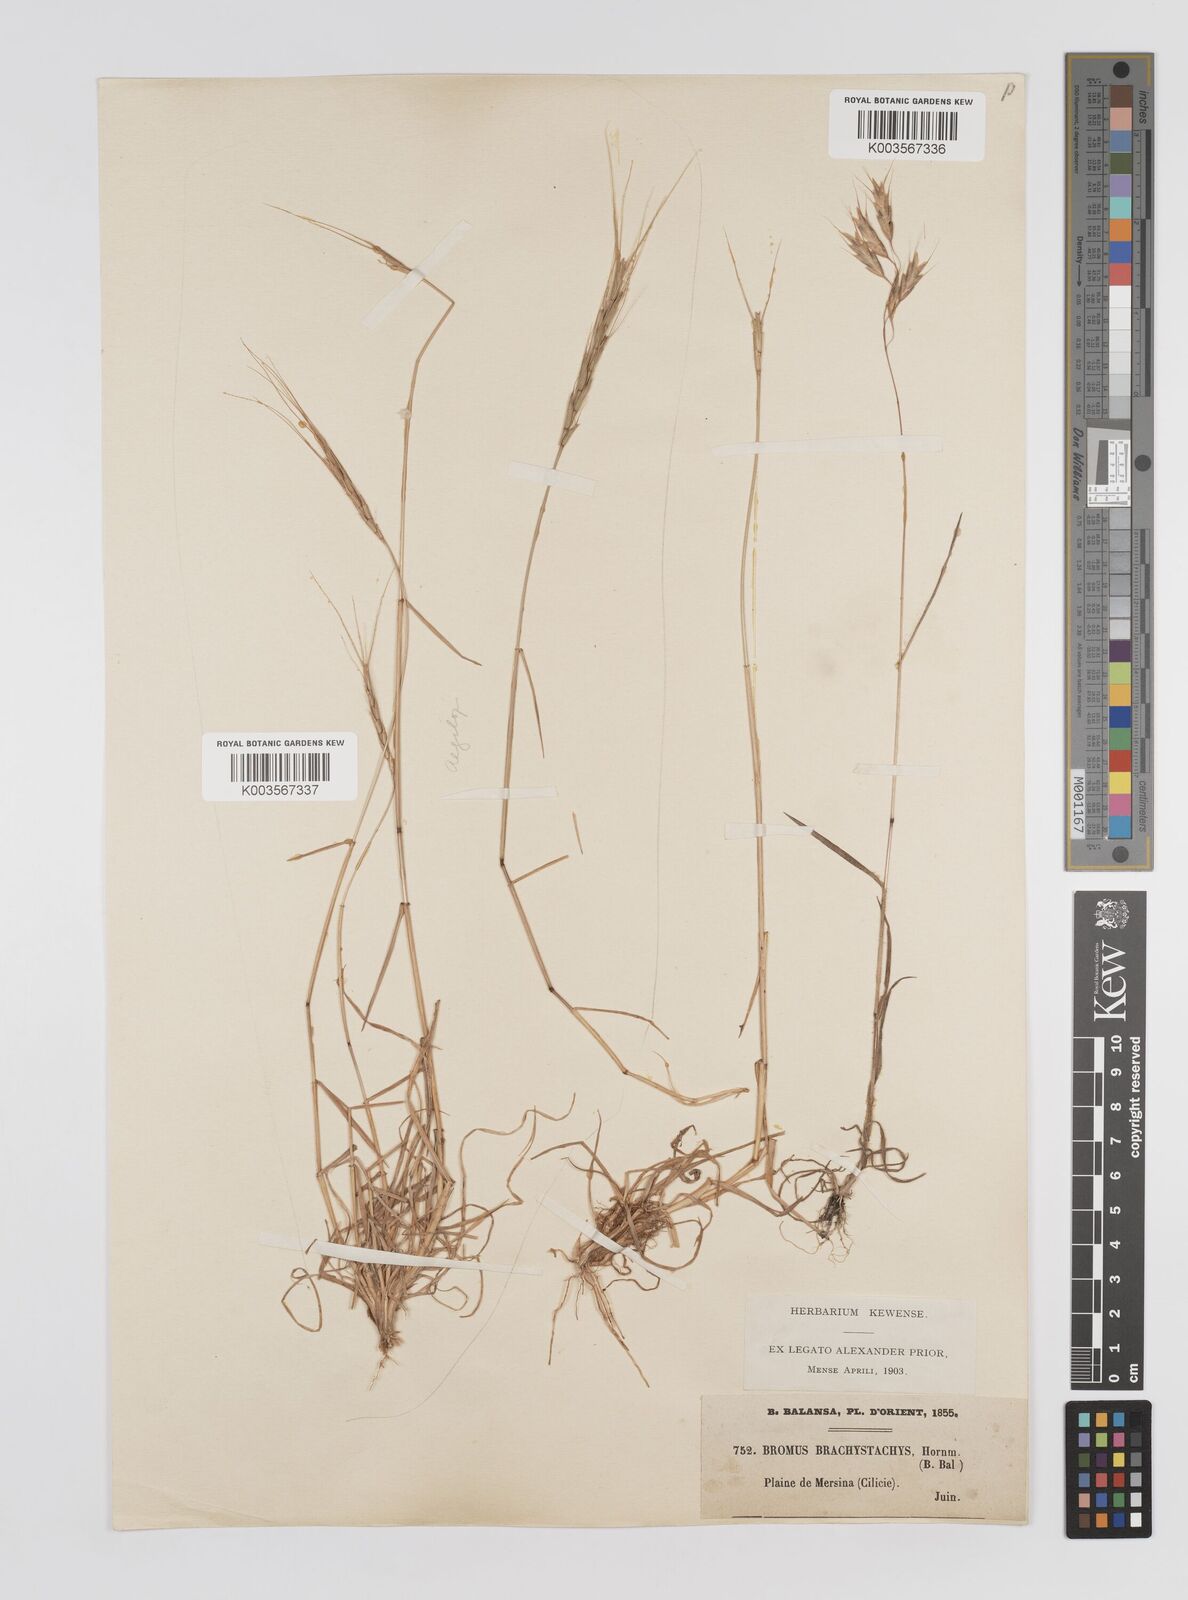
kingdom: Plantae
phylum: Tracheophyta
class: Liliopsida
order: Poales
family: Poaceae
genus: Bromus
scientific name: Bromus erectus
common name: Erect brome
